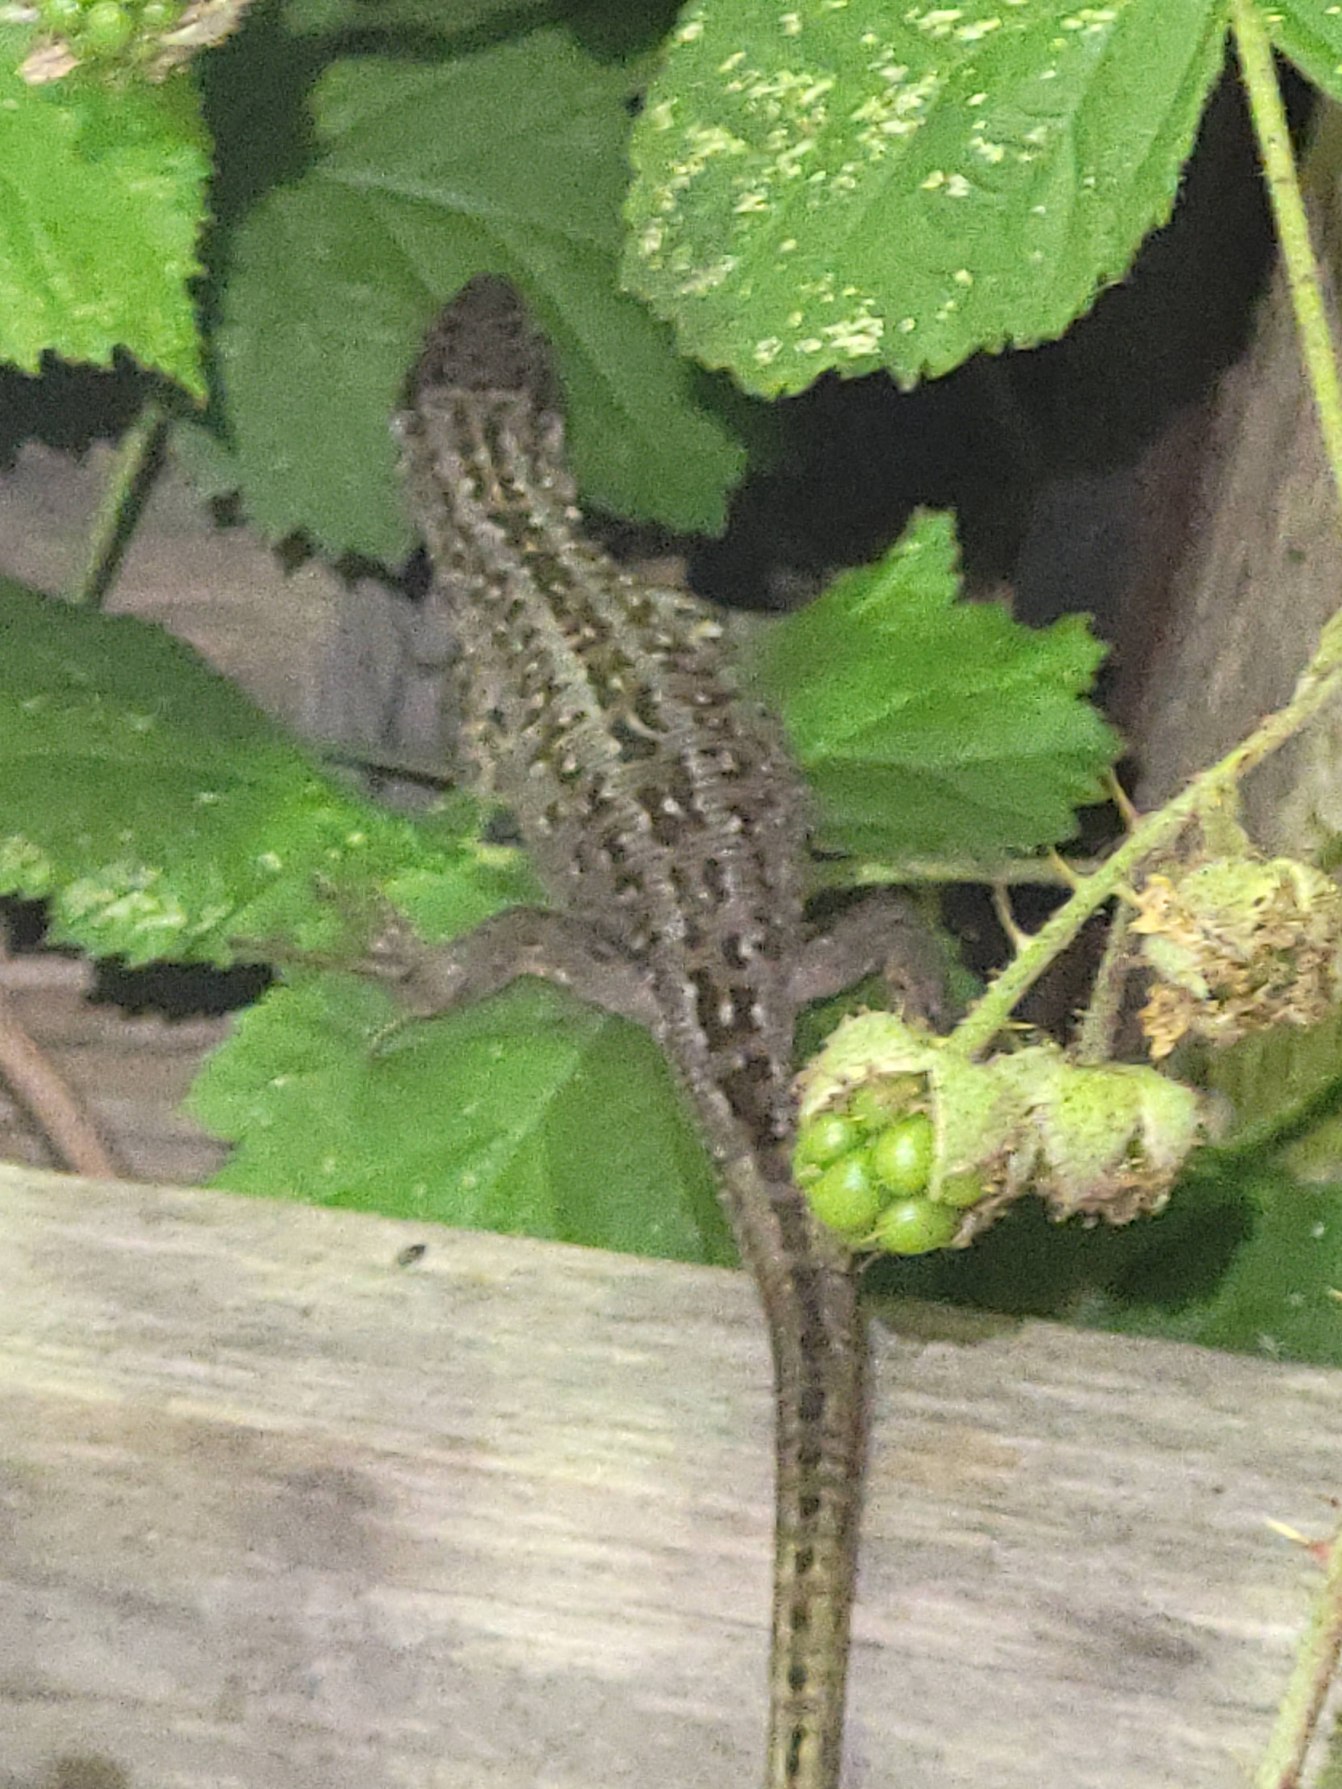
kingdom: Animalia
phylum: Chordata
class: Squamata
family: Lacertidae
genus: Lacerta
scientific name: Lacerta agilis
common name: Markfirben
